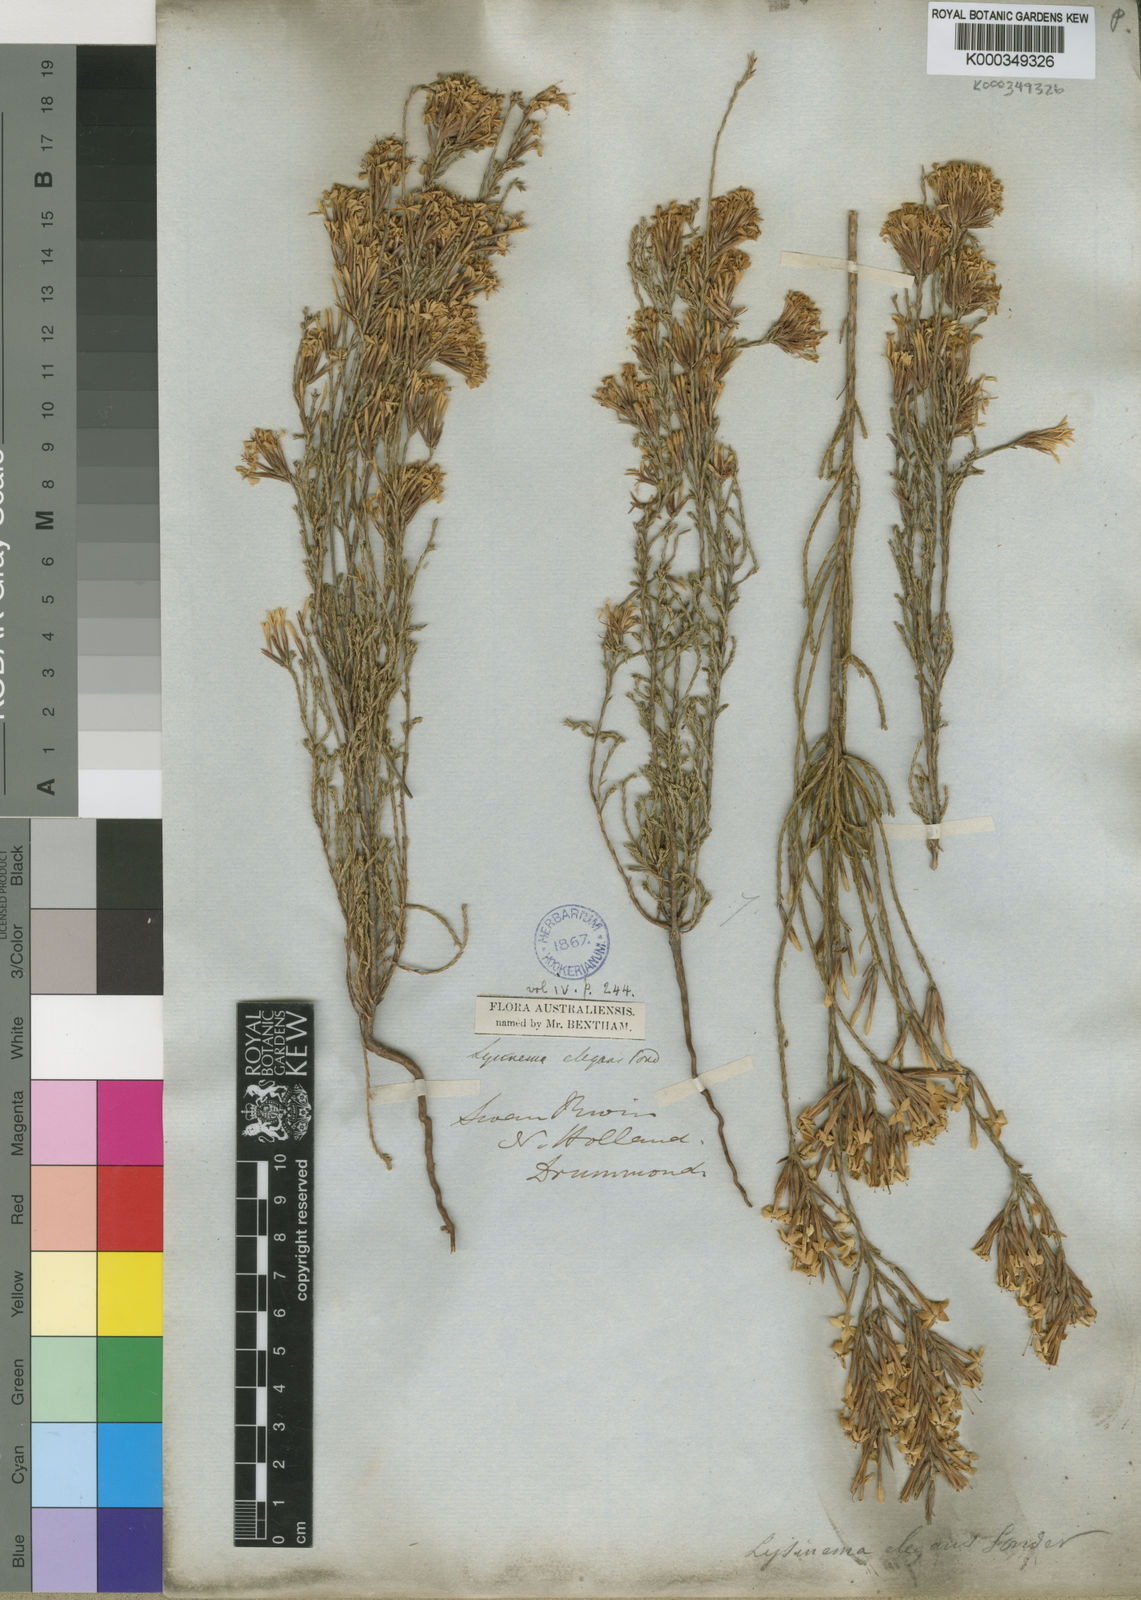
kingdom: Plantae
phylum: Tracheophyta
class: Magnoliopsida
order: Ericales
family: Ericaceae
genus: Lysinema
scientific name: Lysinema elegans
